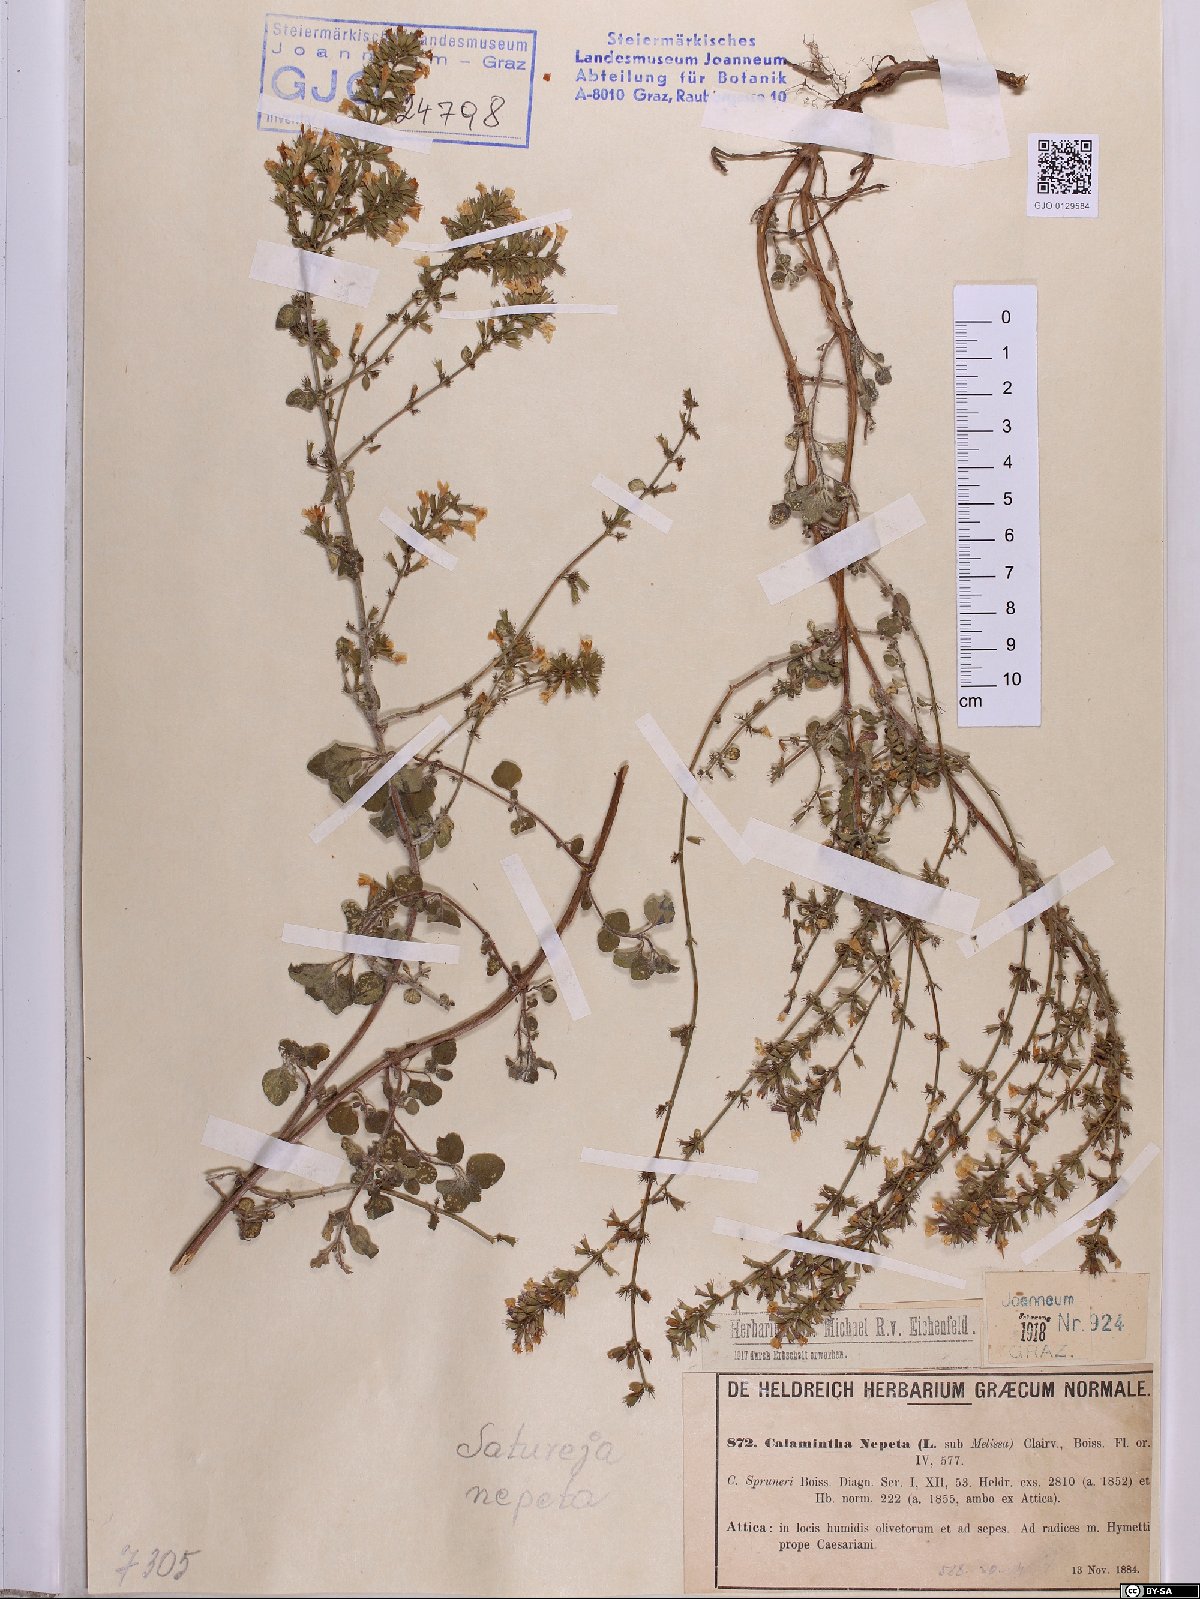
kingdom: Plantae
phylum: Tracheophyta
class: Magnoliopsida
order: Lamiales
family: Lamiaceae
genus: Clinopodium
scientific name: Clinopodium nepeta
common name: Lesser calamint
